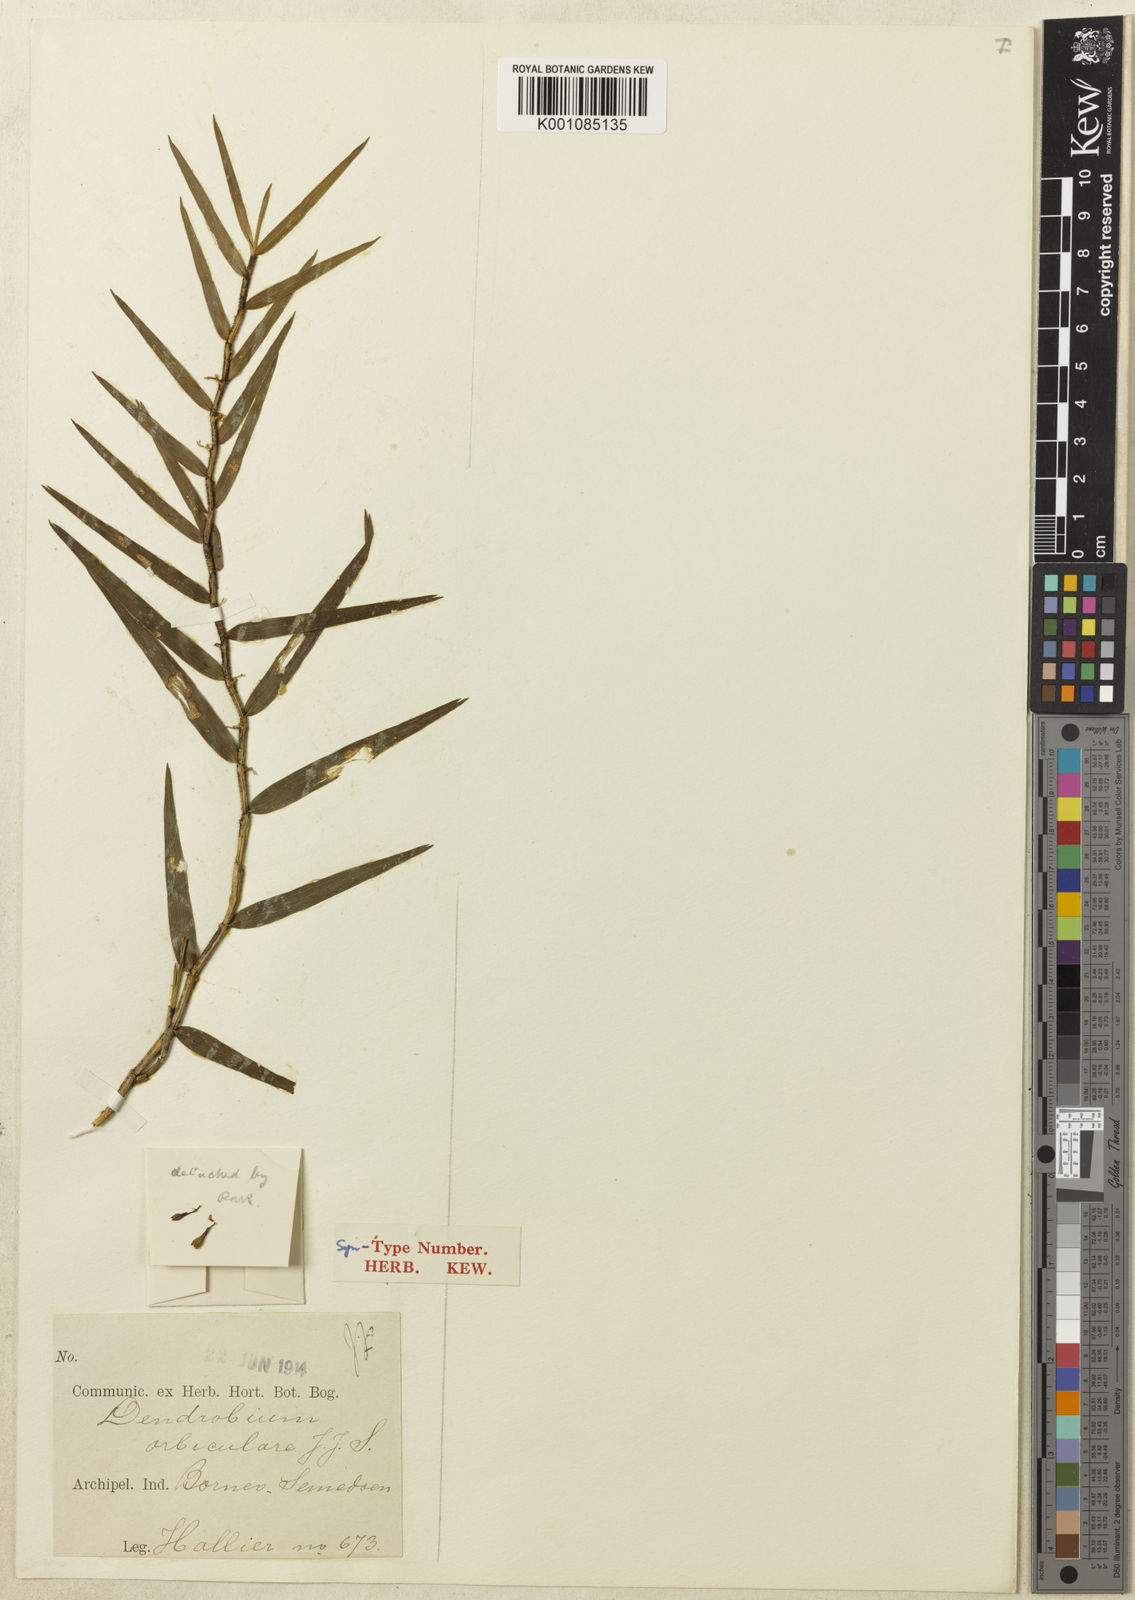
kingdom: Plantae
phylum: Tracheophyta
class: Liliopsida
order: Asparagales
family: Orchidaceae
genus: Dendrobium
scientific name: Dendrobium gramineum
